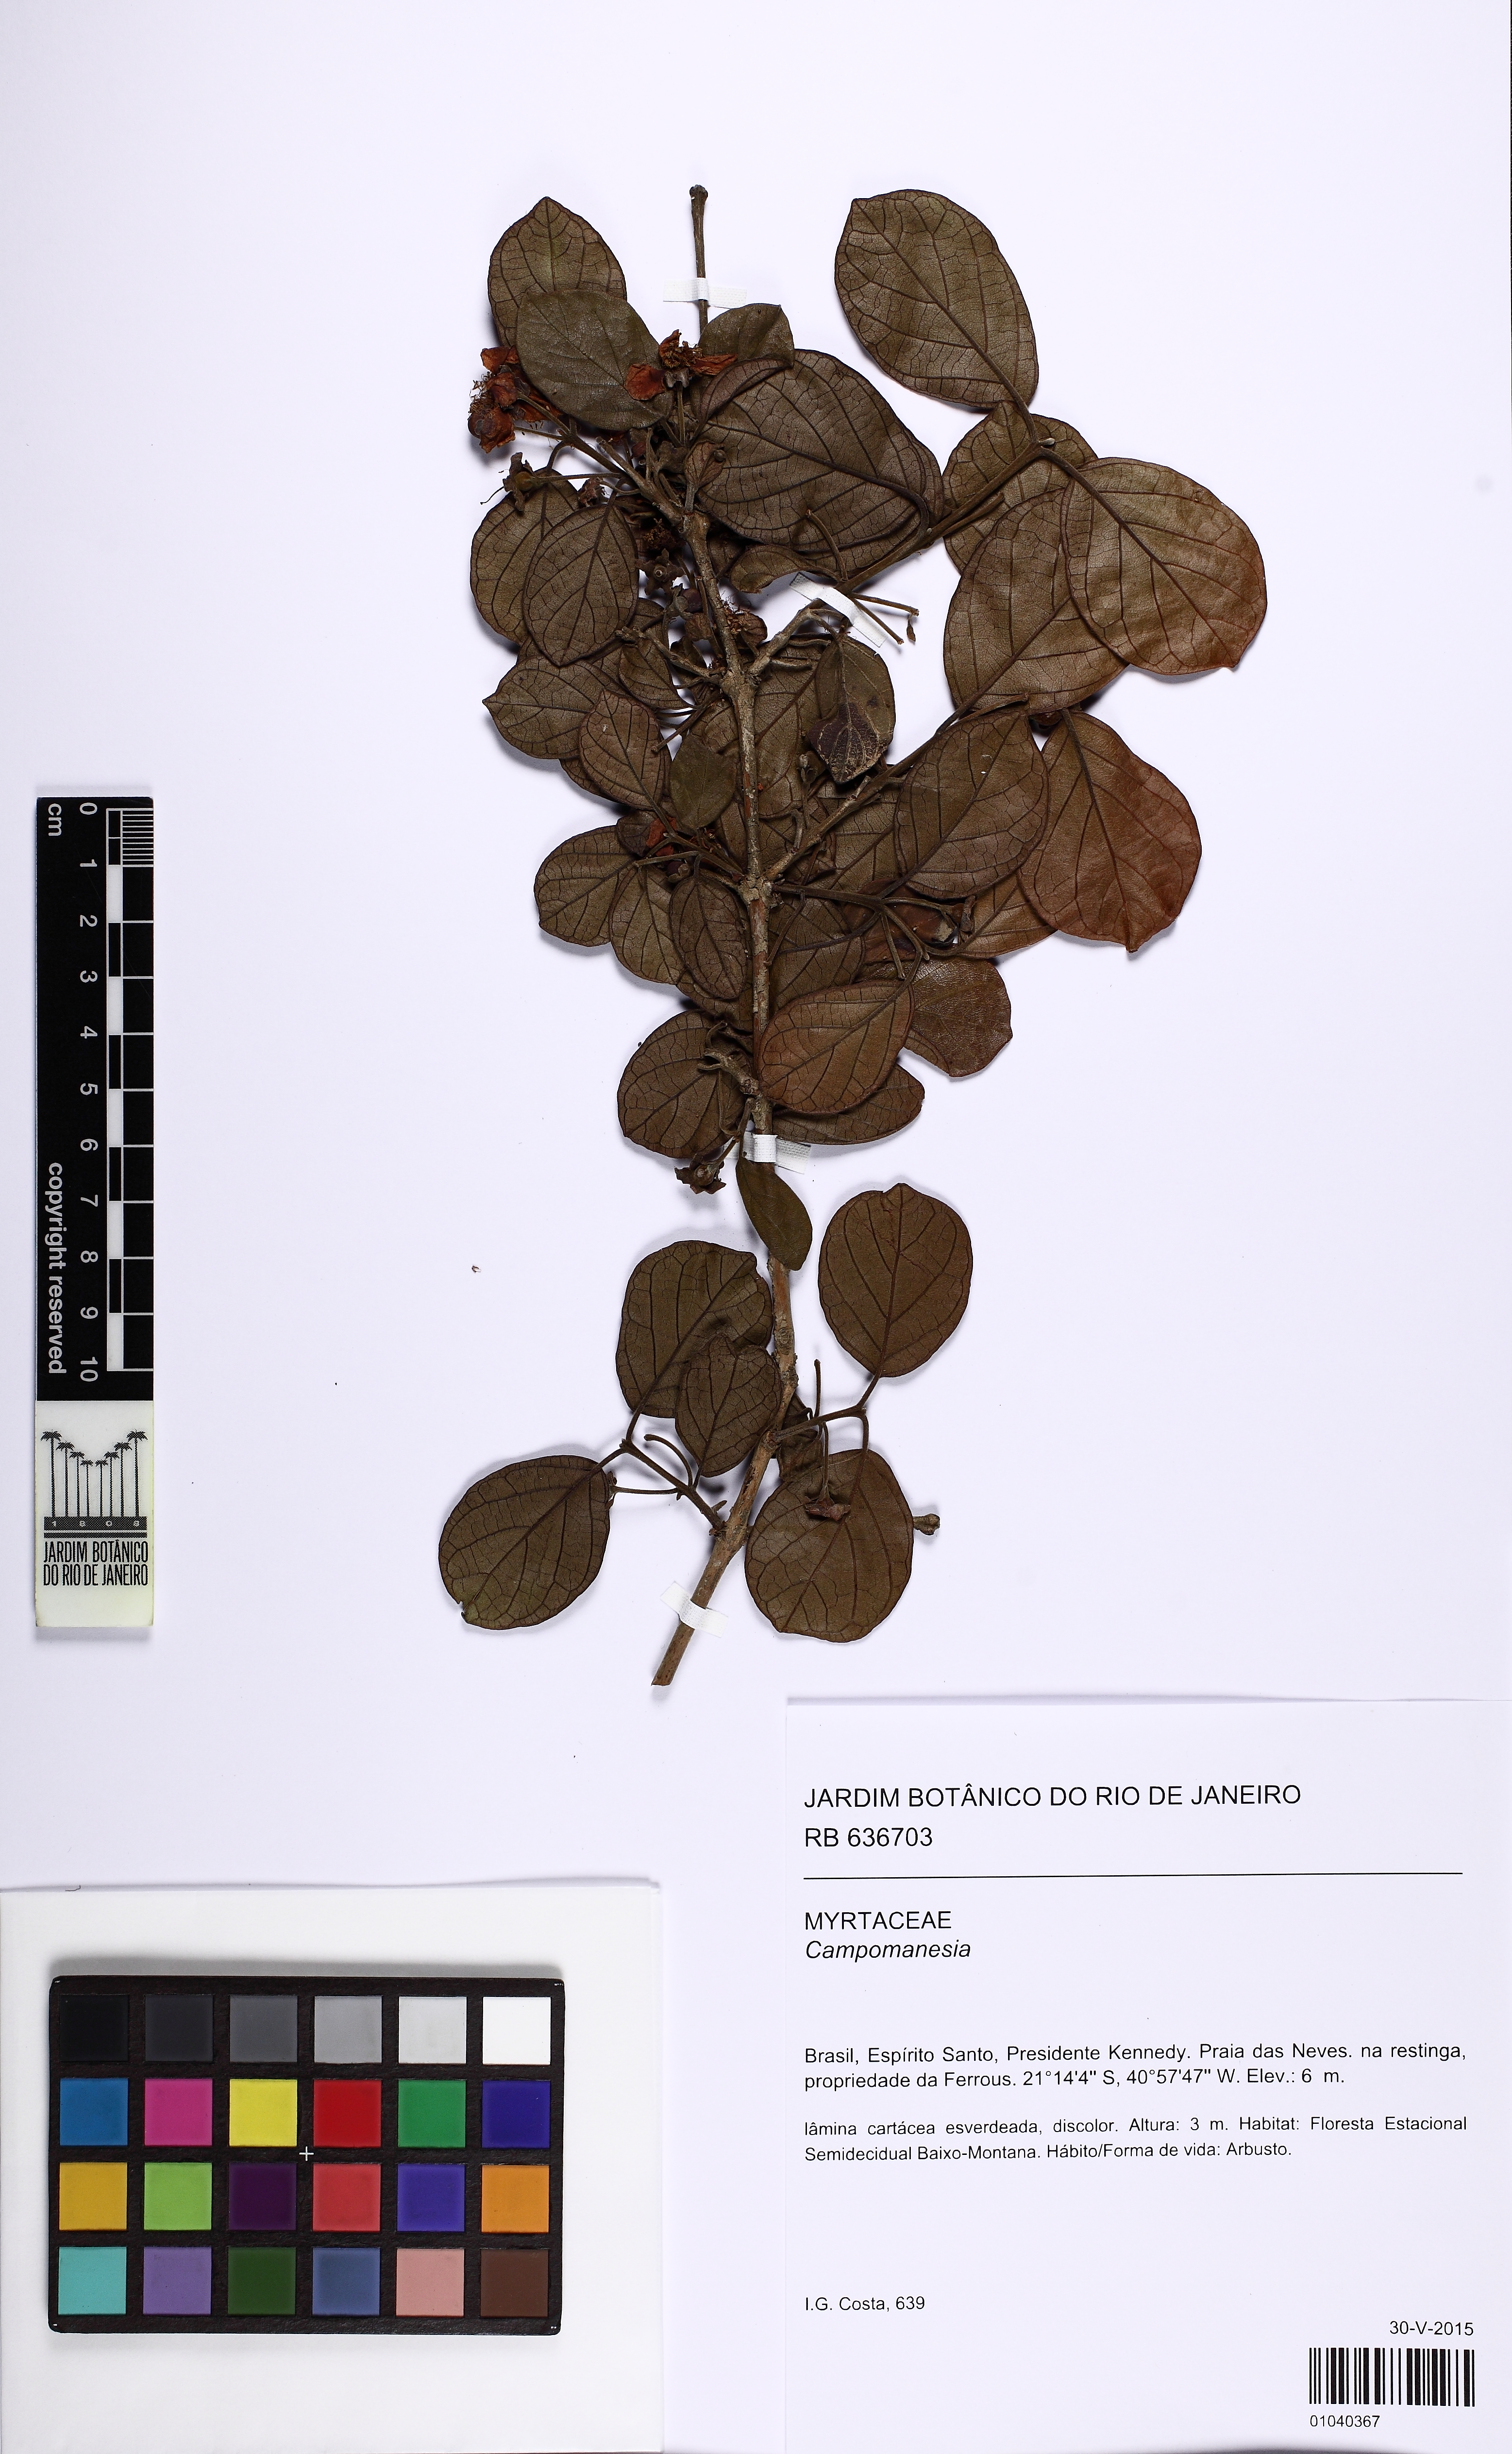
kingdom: Plantae
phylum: Tracheophyta
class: Magnoliopsida
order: Myrtales
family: Myrtaceae
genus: Campomanesia
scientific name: Campomanesia macrobracteolata
